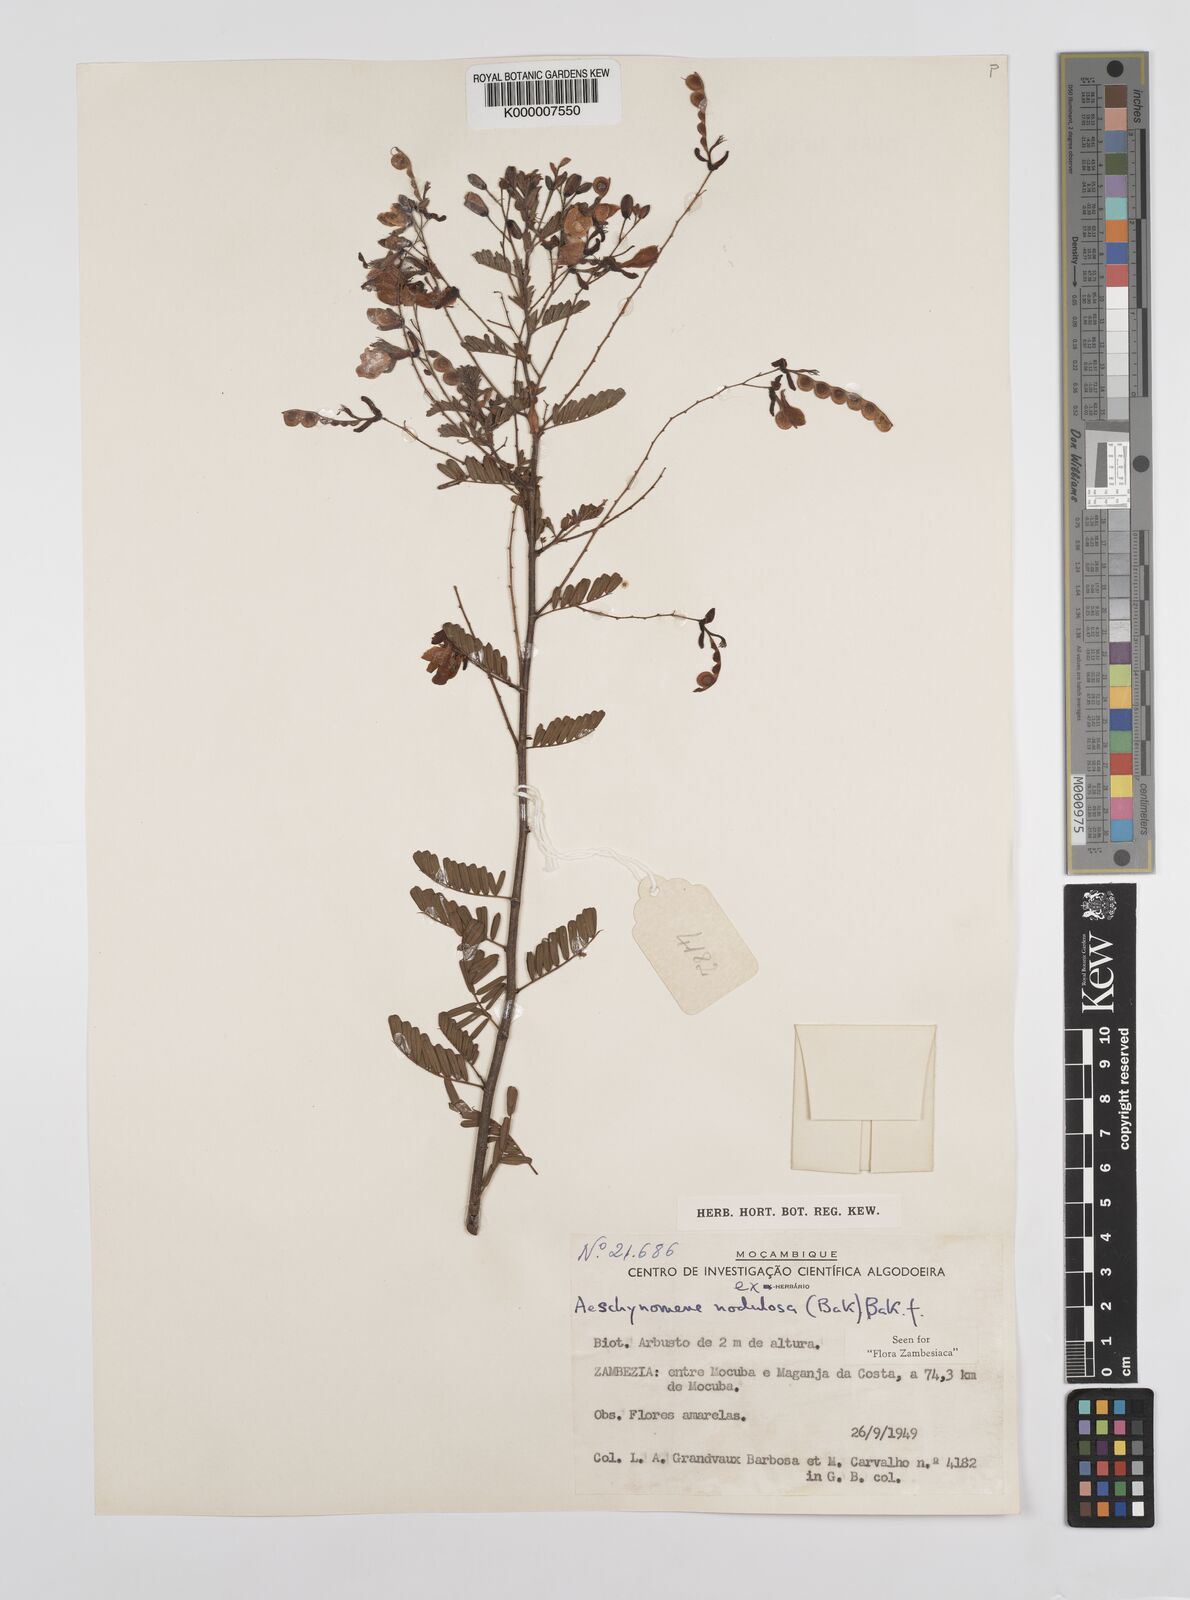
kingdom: Plantae
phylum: Tracheophyta
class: Magnoliopsida
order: Fabales
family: Fabaceae
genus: Aeschynomene
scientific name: Aeschynomene nodulosa
